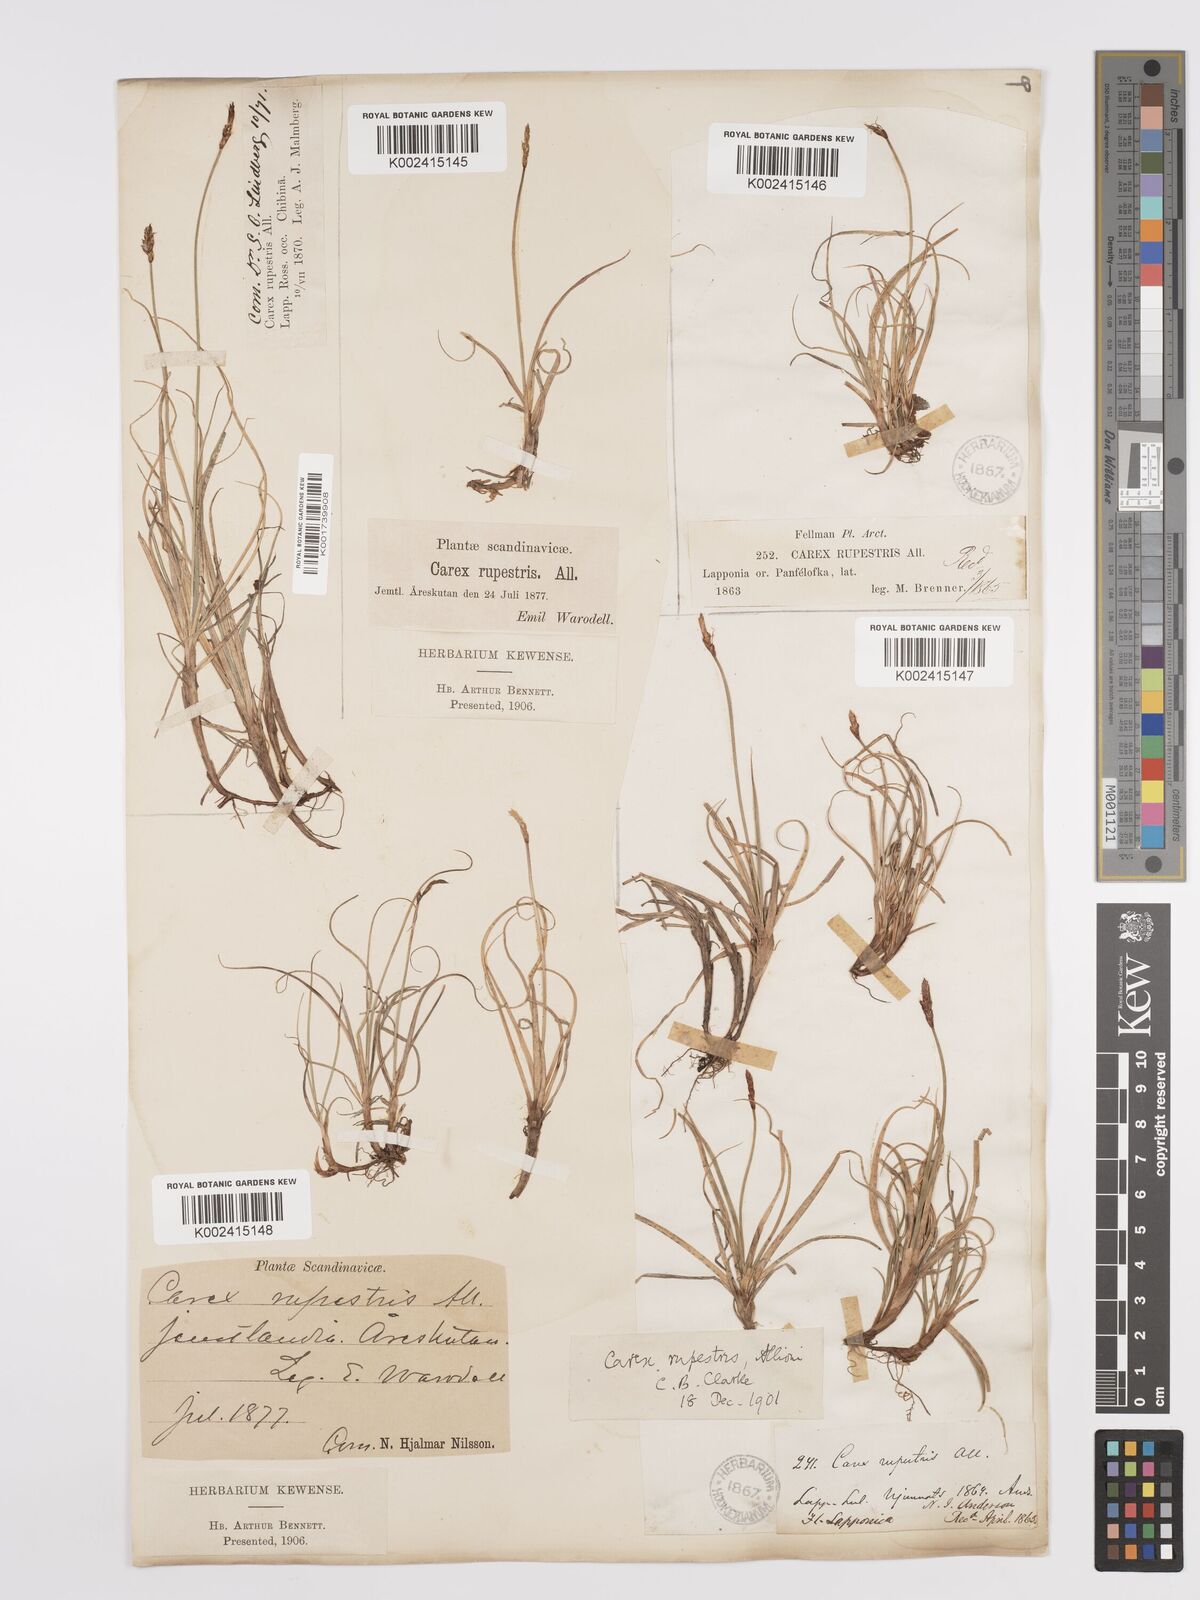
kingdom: Plantae
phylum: Tracheophyta
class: Liliopsida
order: Poales
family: Cyperaceae
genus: Carex
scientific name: Carex rupestris
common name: Rock sedge
